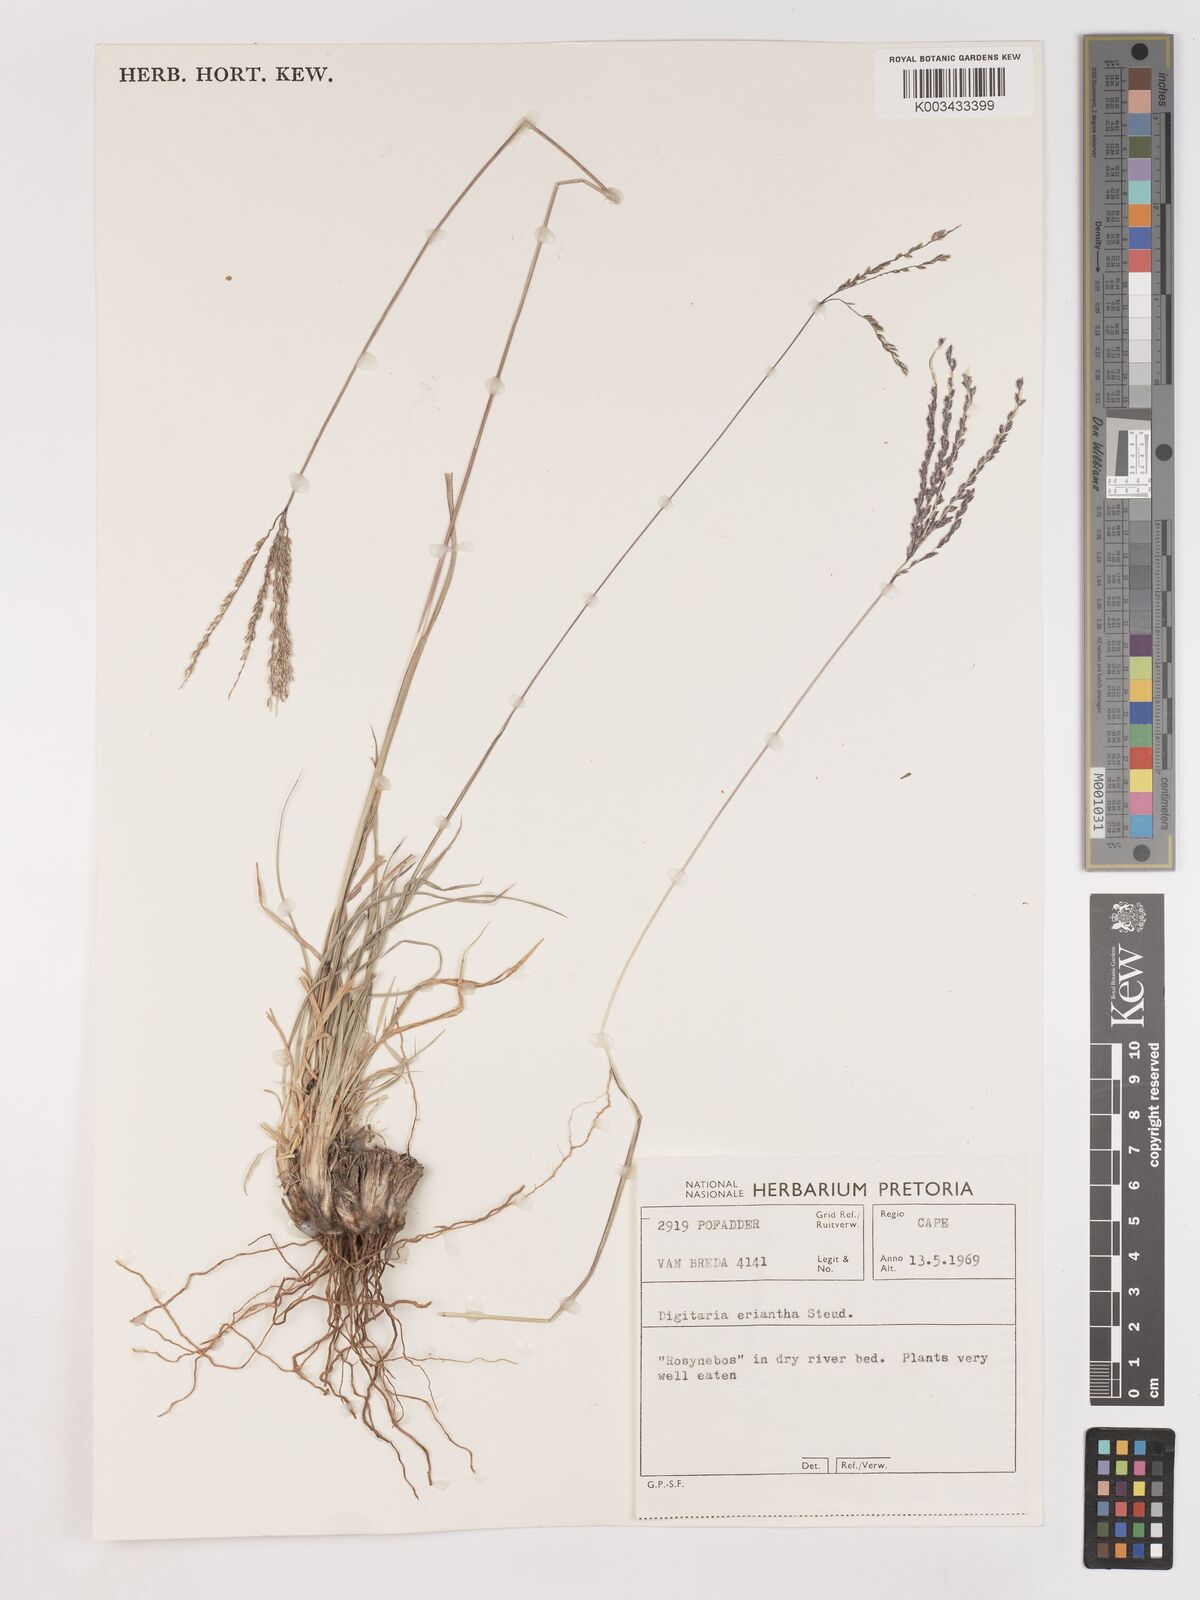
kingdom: Plantae
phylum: Tracheophyta
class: Liliopsida
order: Poales
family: Poaceae
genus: Digitaria
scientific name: Digitaria eriantha
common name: Digitgrass
